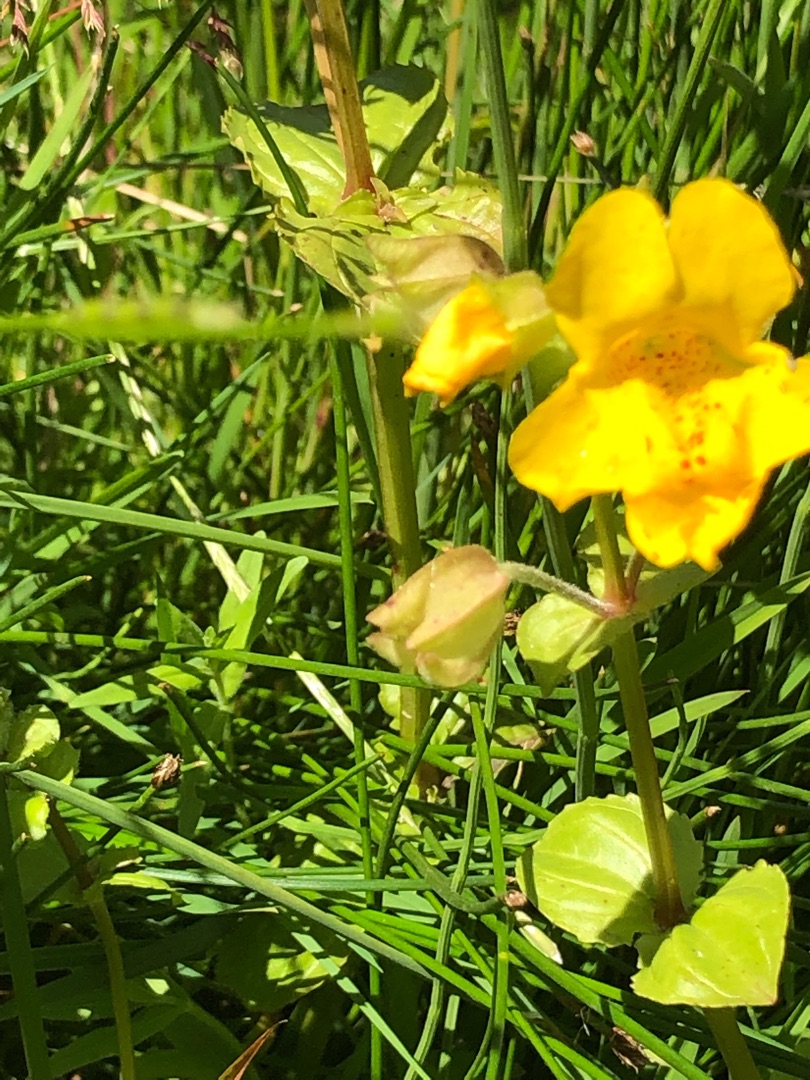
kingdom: Plantae
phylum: Tracheophyta
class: Magnoliopsida
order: Lamiales
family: Phrymaceae
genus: Erythranthe
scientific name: Erythranthe guttata
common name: Abeblomst
